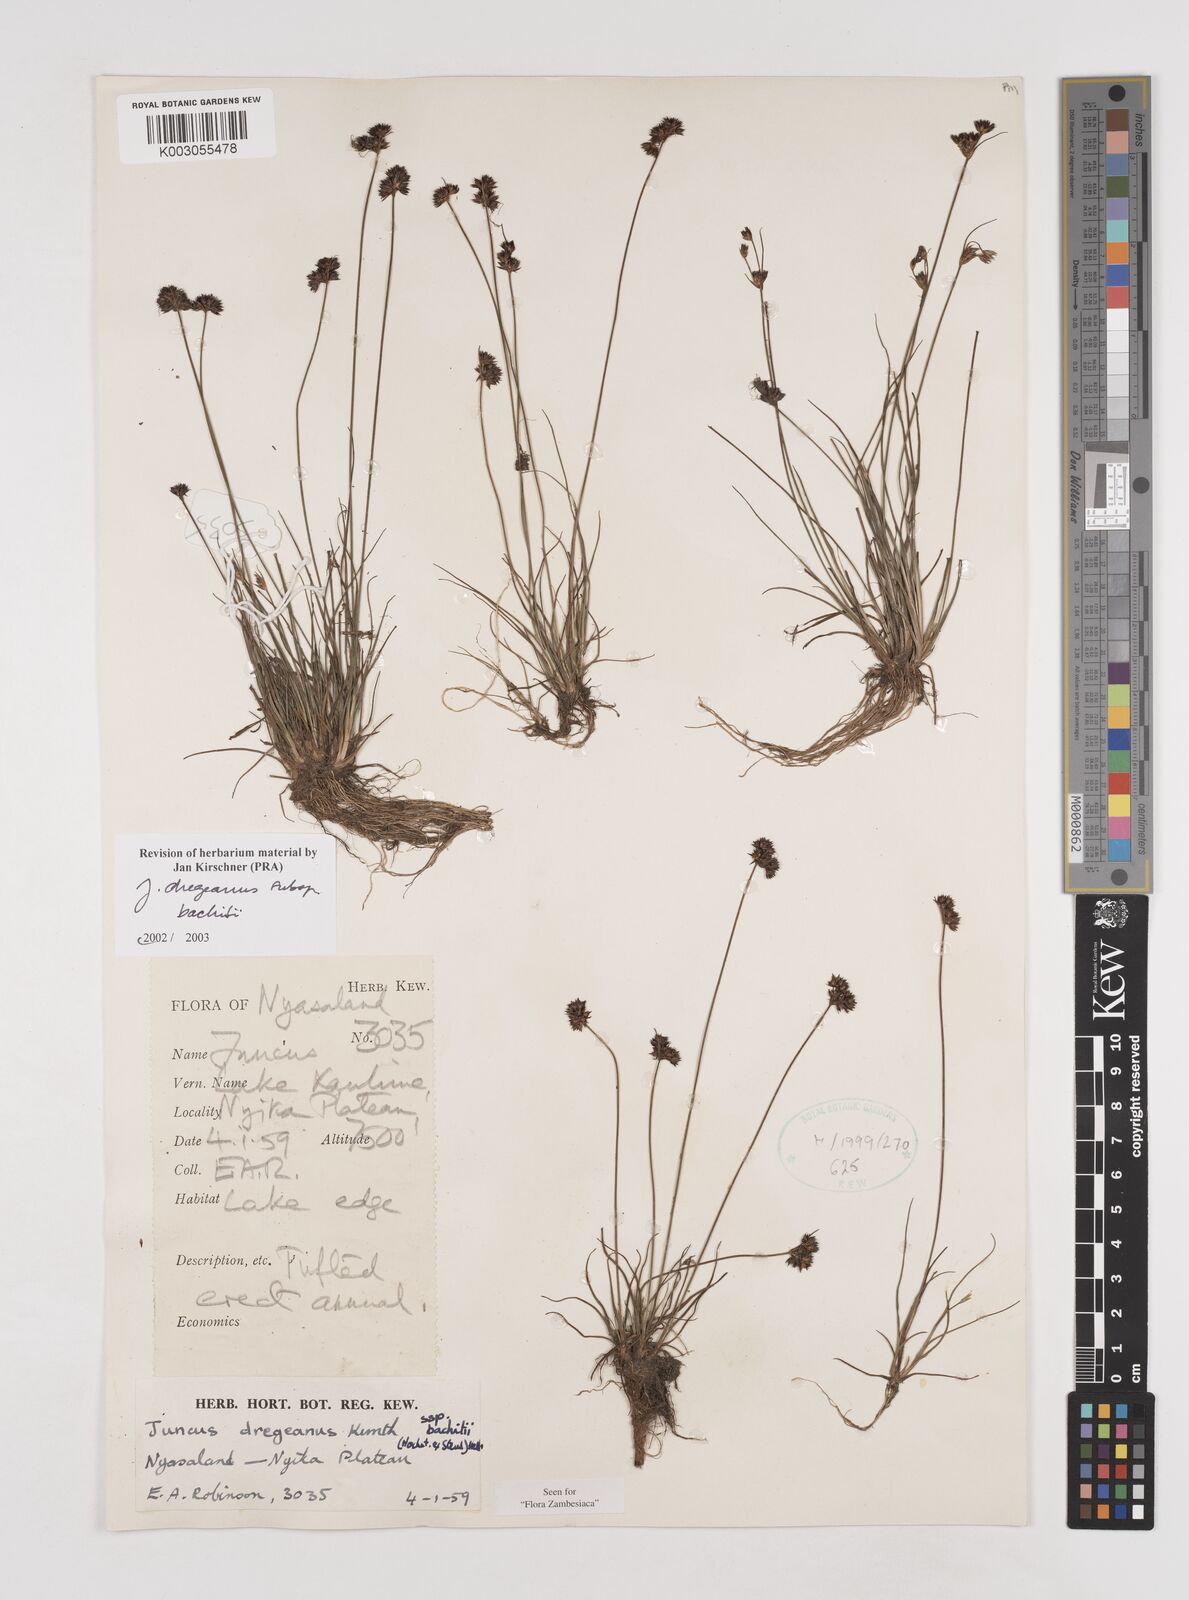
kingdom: Plantae
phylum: Tracheophyta
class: Liliopsida
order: Poales
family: Juncaceae
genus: Juncus
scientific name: Juncus dregeanus
